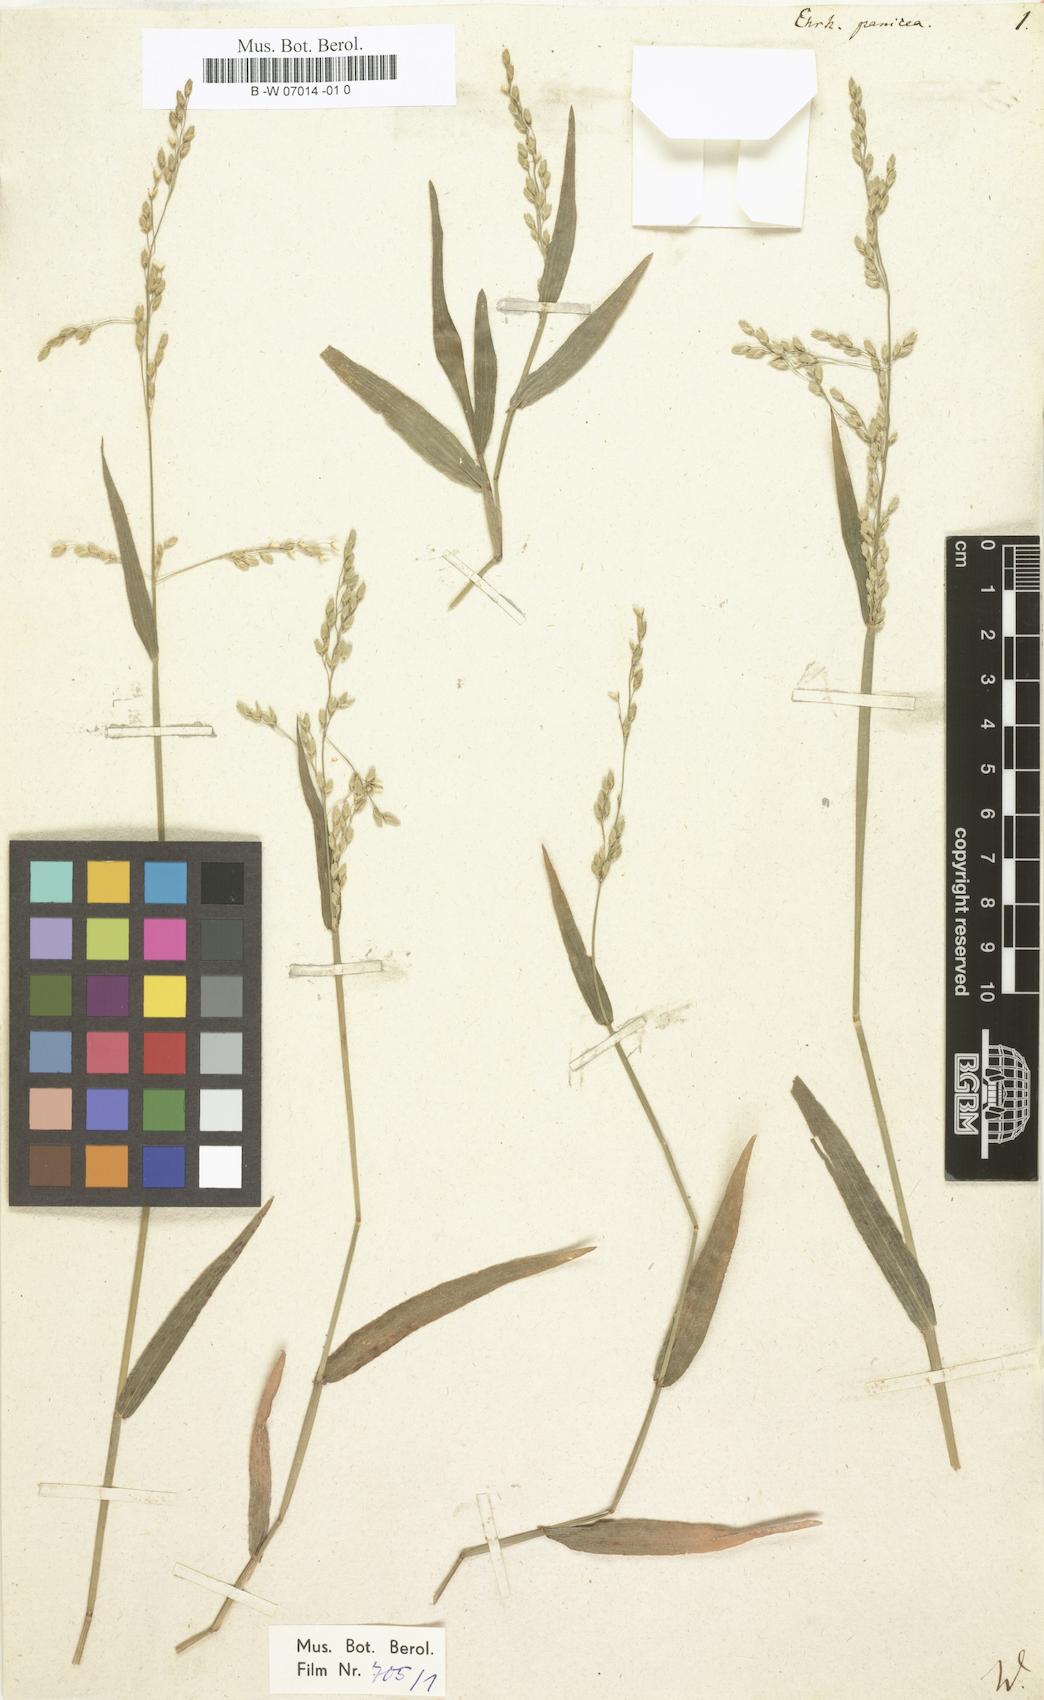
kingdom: Plantae
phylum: Tracheophyta
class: Liliopsida
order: Poales
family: Poaceae
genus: Ehrharta
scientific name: Ehrharta erecta
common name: Panic veldtgrass
